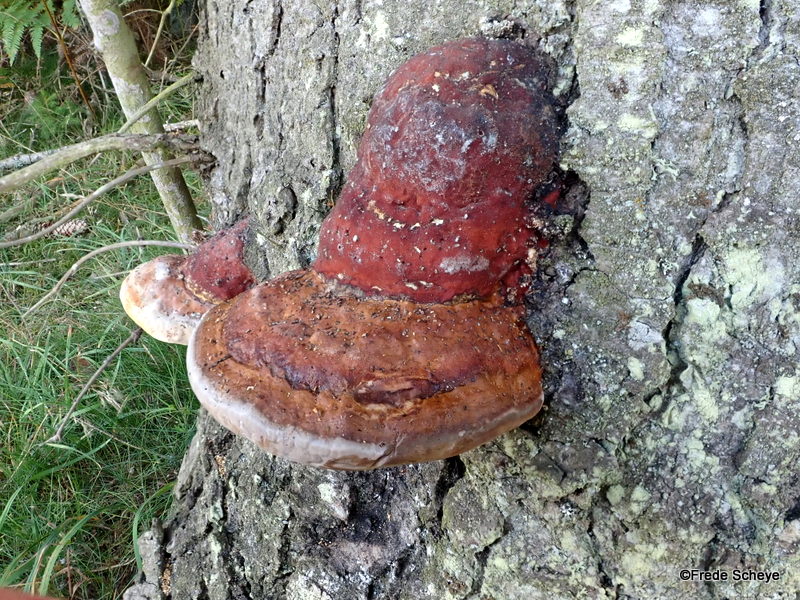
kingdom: Fungi
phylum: Basidiomycota
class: Agaricomycetes
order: Polyporales
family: Fomitopsidaceae
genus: Fomitopsis
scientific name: Fomitopsis pinicola
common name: randbæltet hovporesvamp
